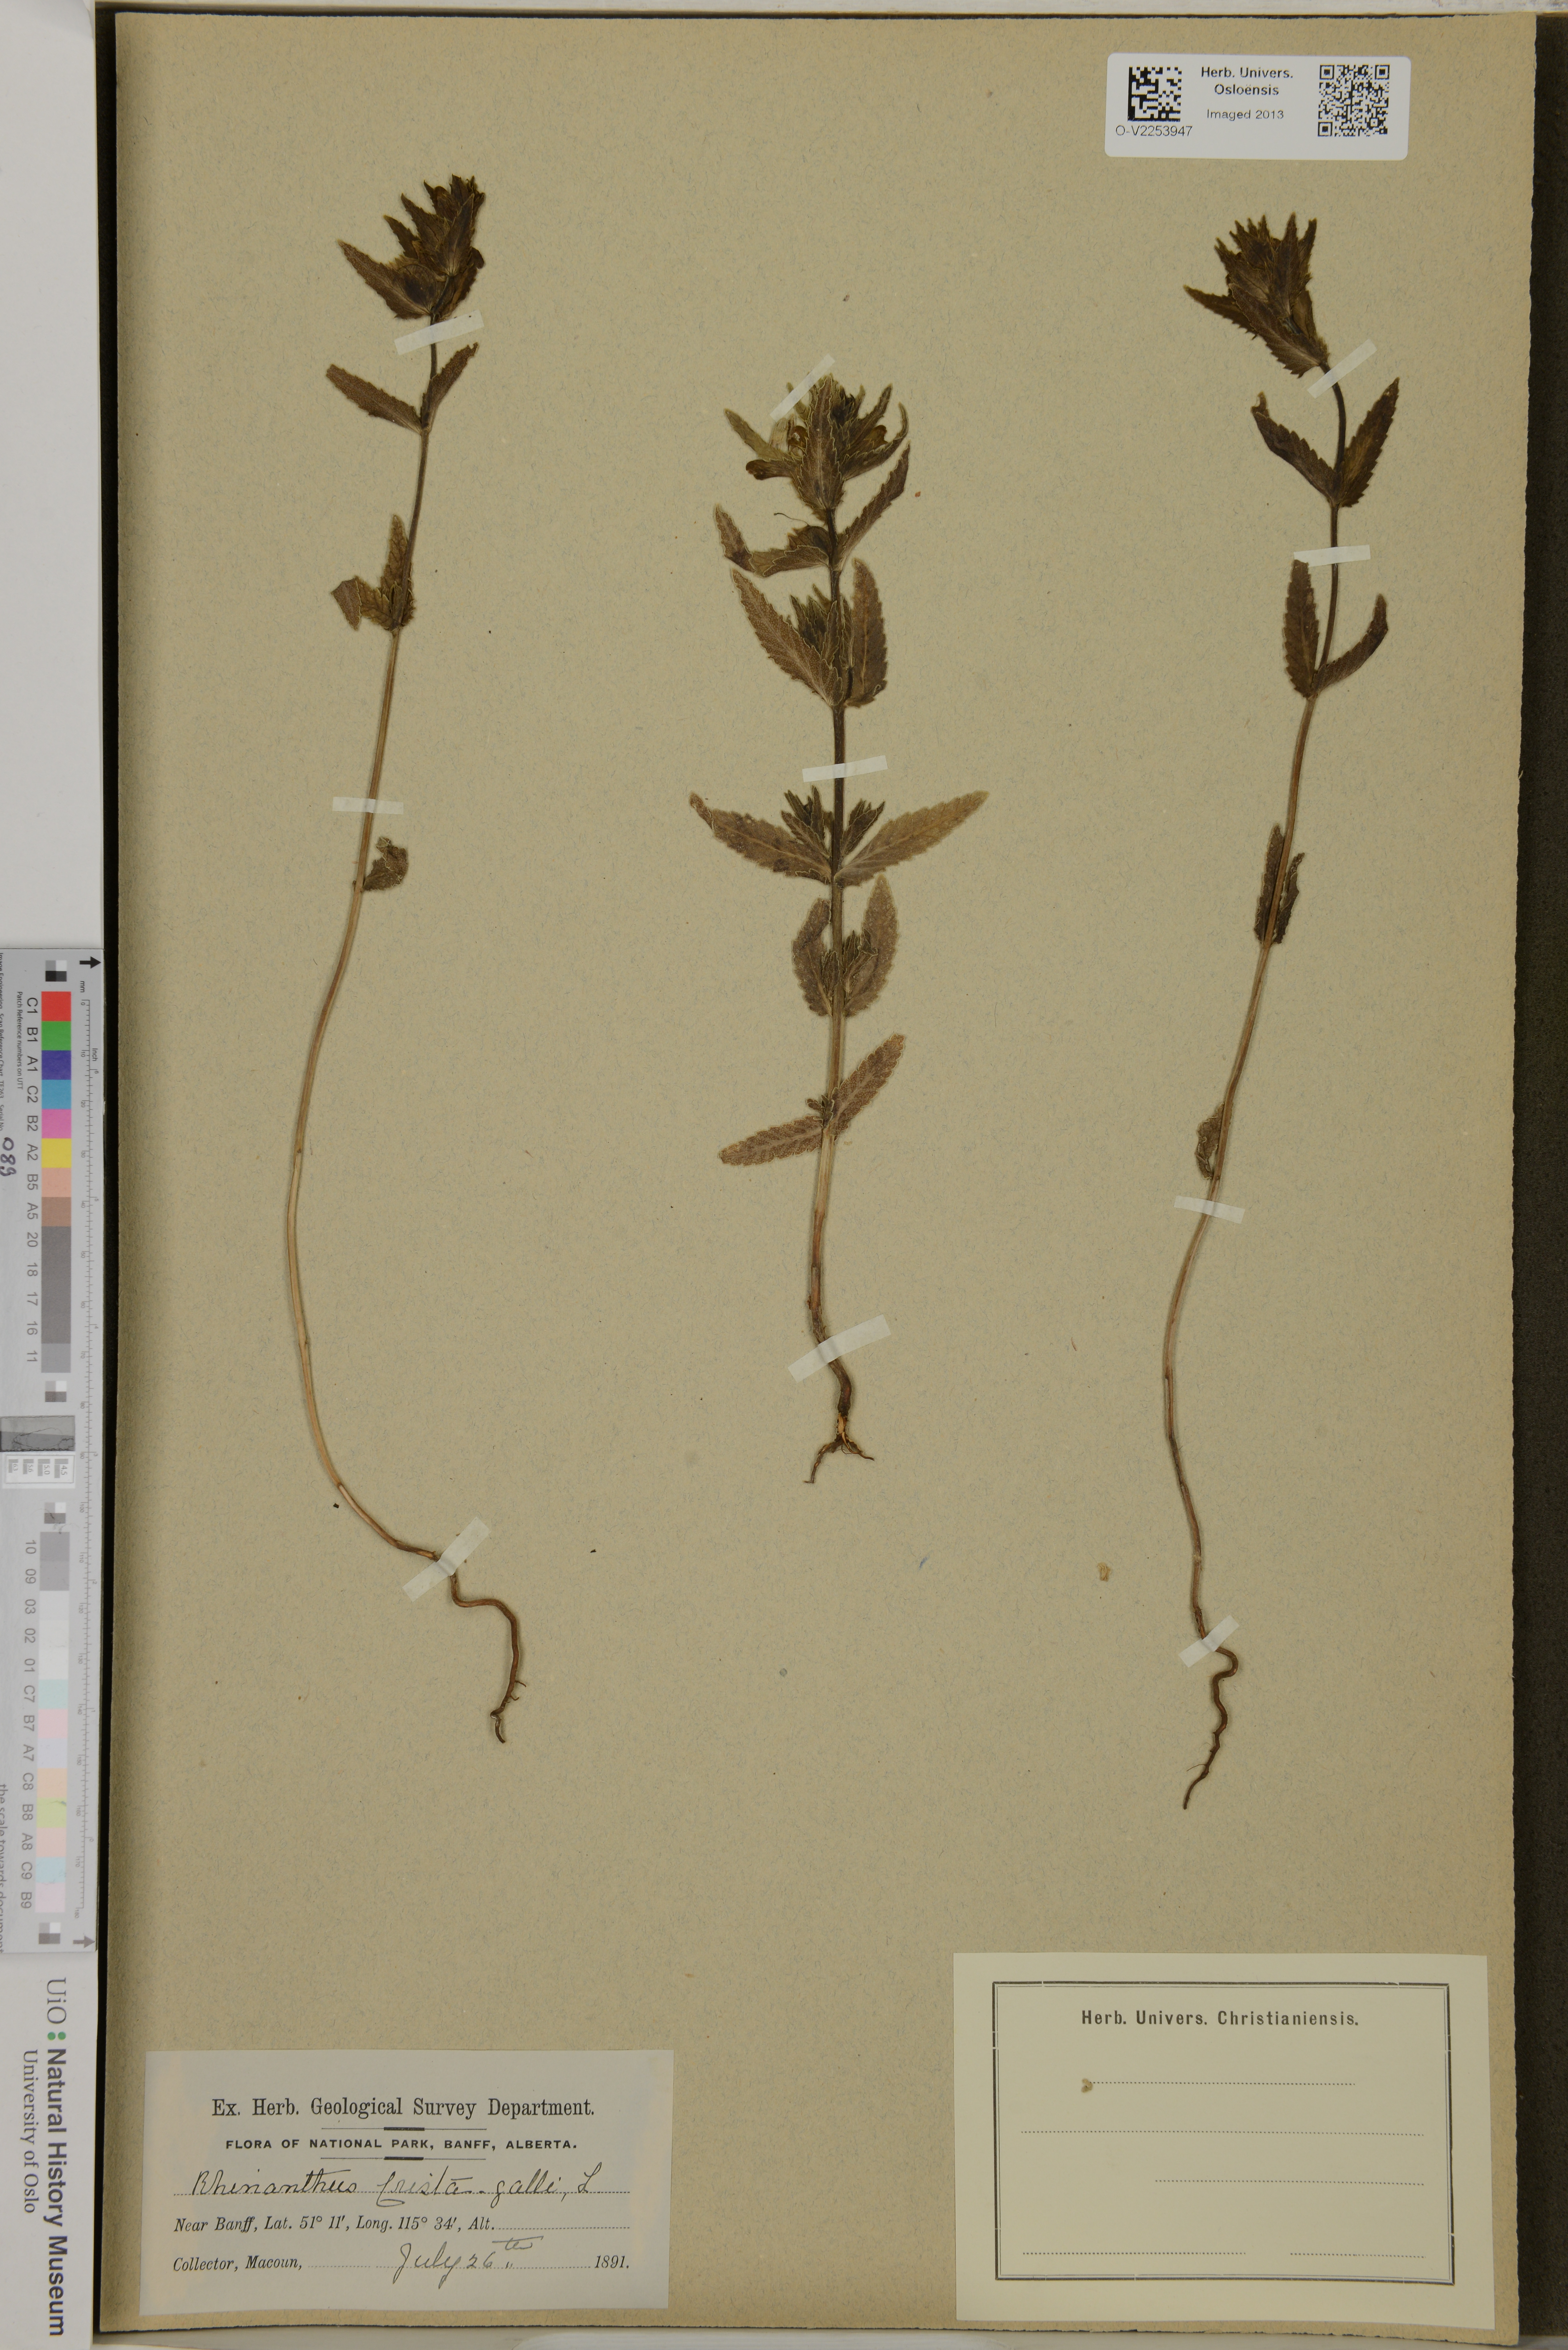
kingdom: Plantae
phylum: Tracheophyta
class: Magnoliopsida
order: Lamiales
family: Orobanchaceae
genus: Rhinanthus
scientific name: Rhinanthus minor
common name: Yellow-rattle
